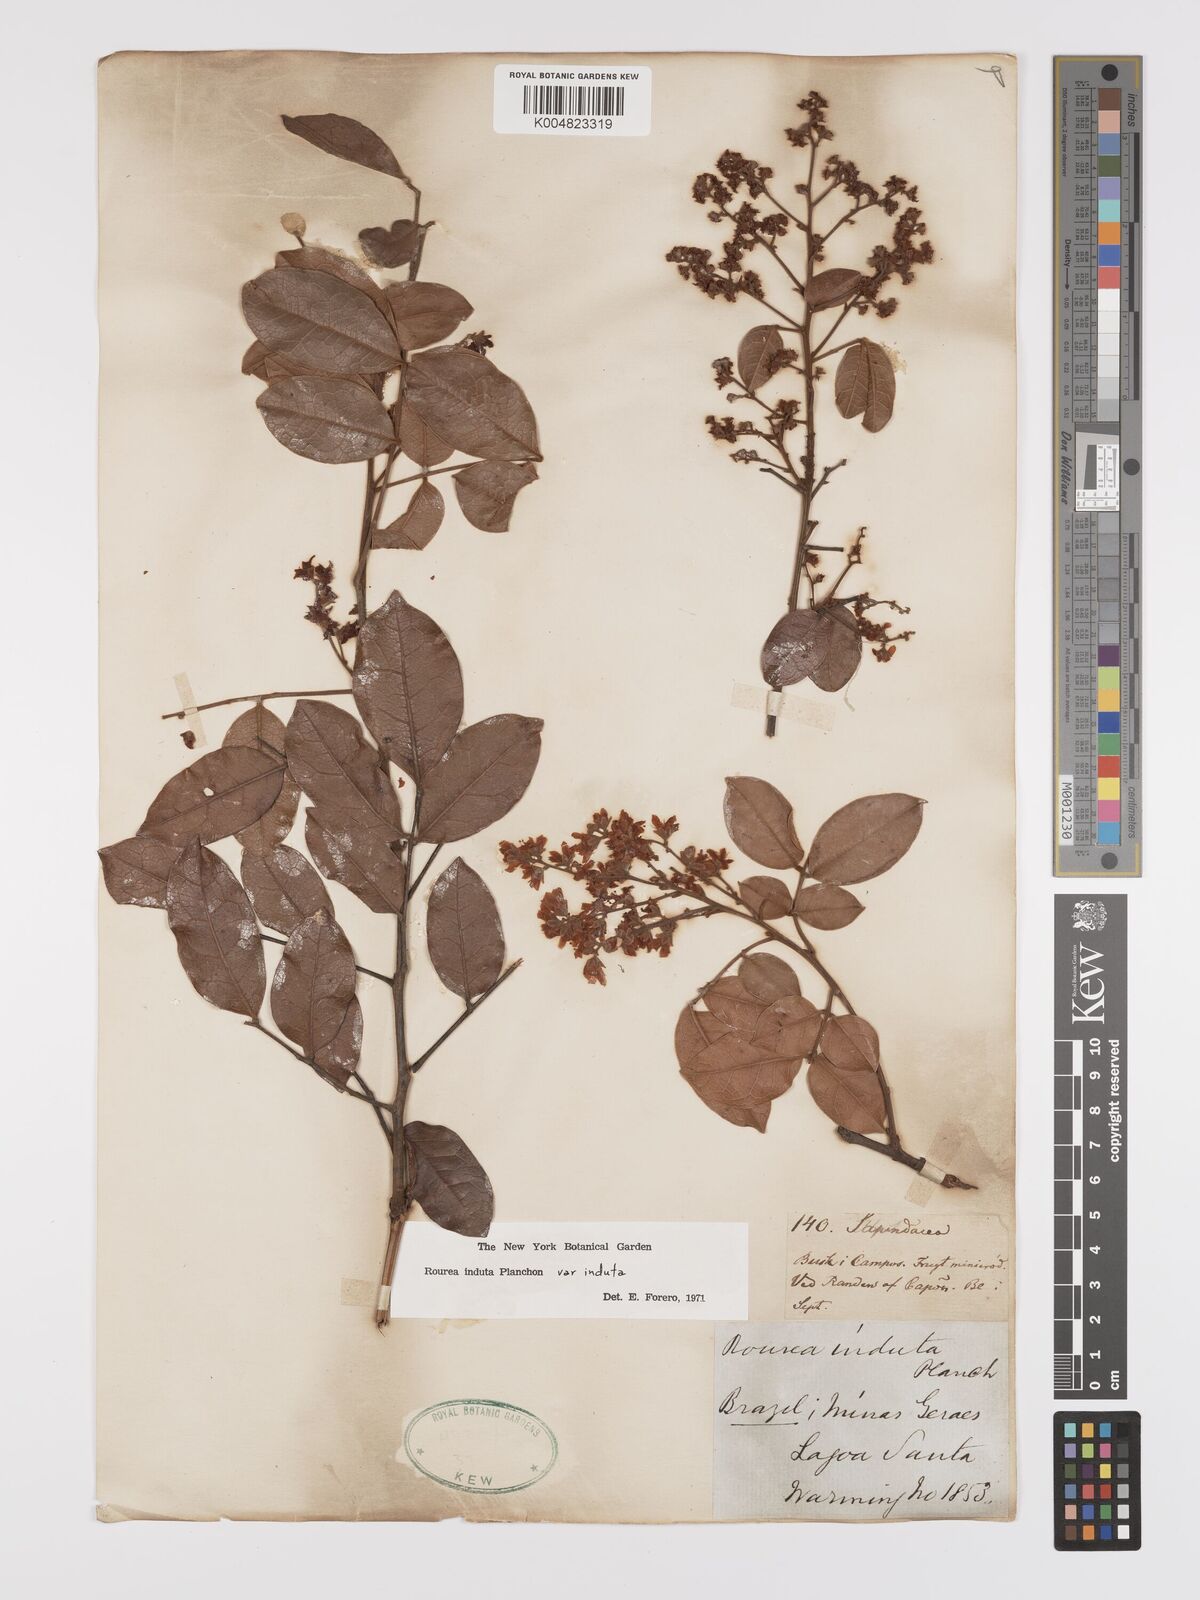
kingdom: Plantae
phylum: Tracheophyta
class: Magnoliopsida
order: Oxalidales
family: Connaraceae
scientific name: Connaraceae
